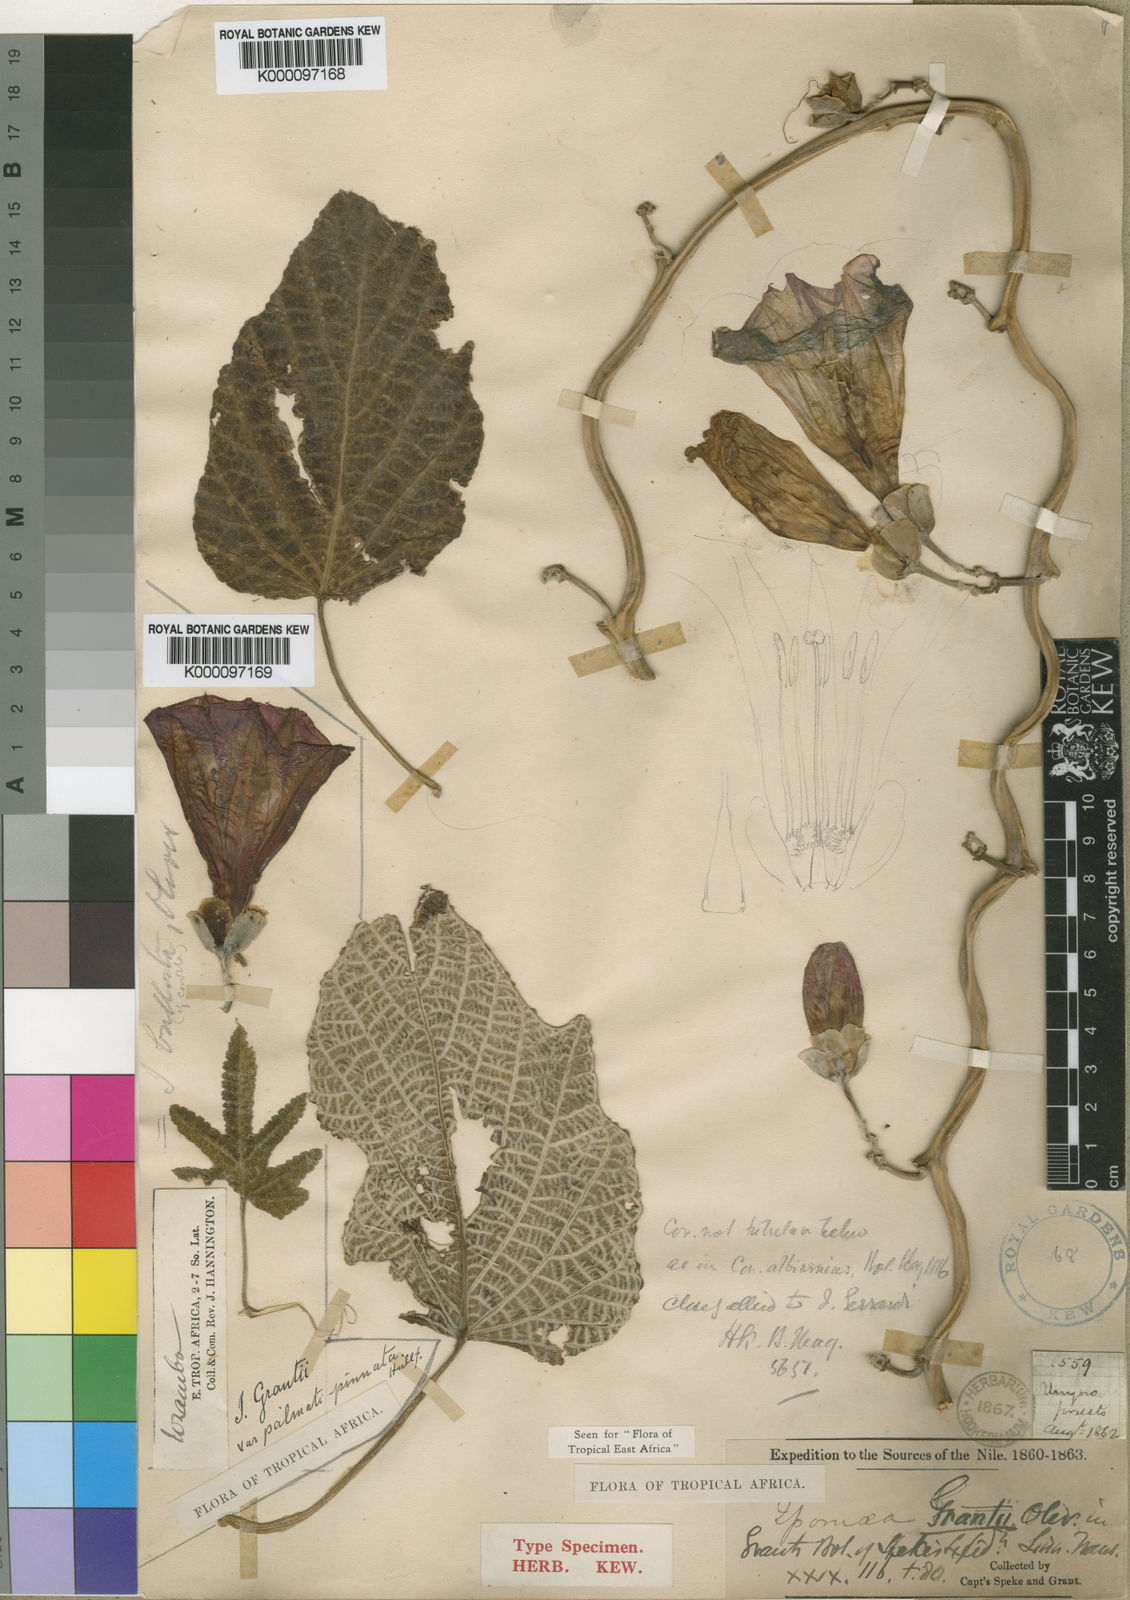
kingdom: Plantae
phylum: Tracheophyta
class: Magnoliopsida
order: Solanales
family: Convolvulaceae
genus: Ipomoea
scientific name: Ipomoea grantii
